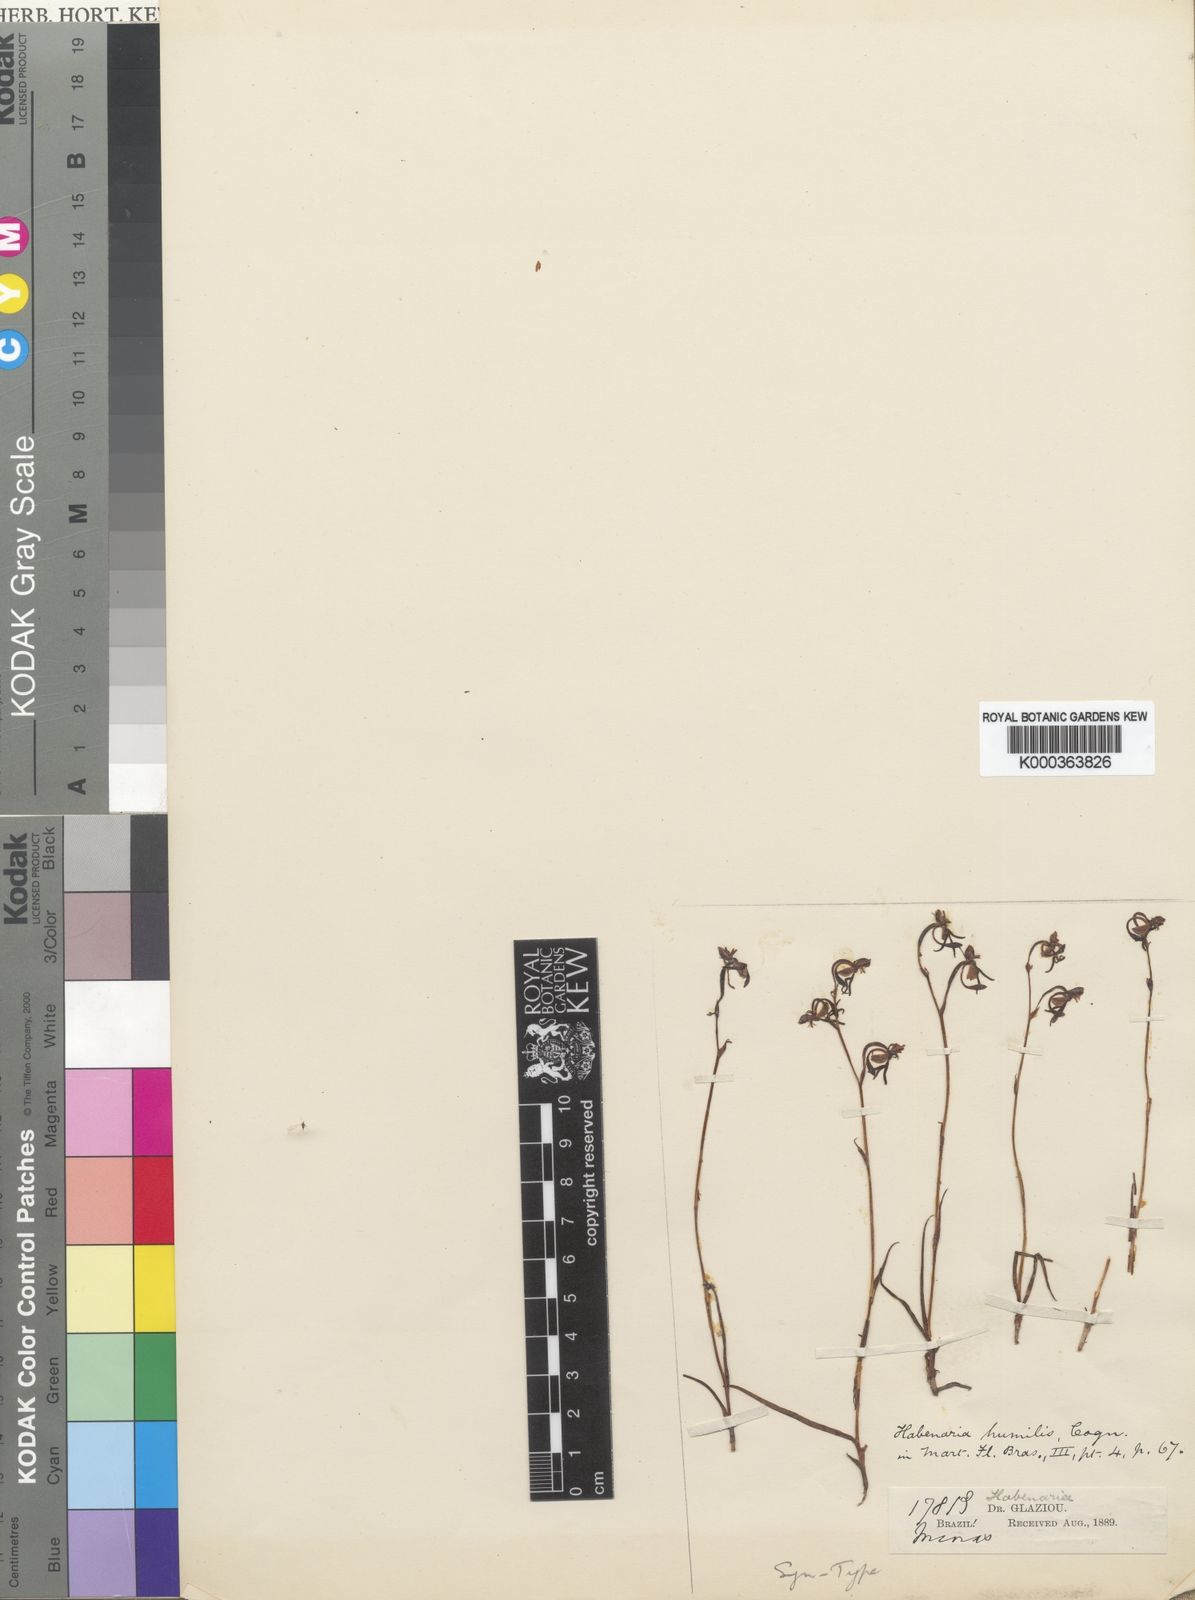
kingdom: Plantae
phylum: Tracheophyta
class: Liliopsida
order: Asparagales
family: Orchidaceae
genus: Habenaria
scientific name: Habenaria campylogyna
